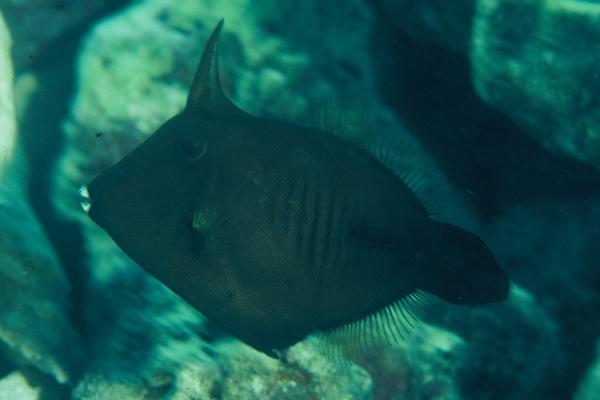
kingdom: Animalia
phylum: Chordata
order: Tetraodontiformes
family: Monacanthidae
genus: Amanses
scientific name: Amanses scopas
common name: Broom filefish
